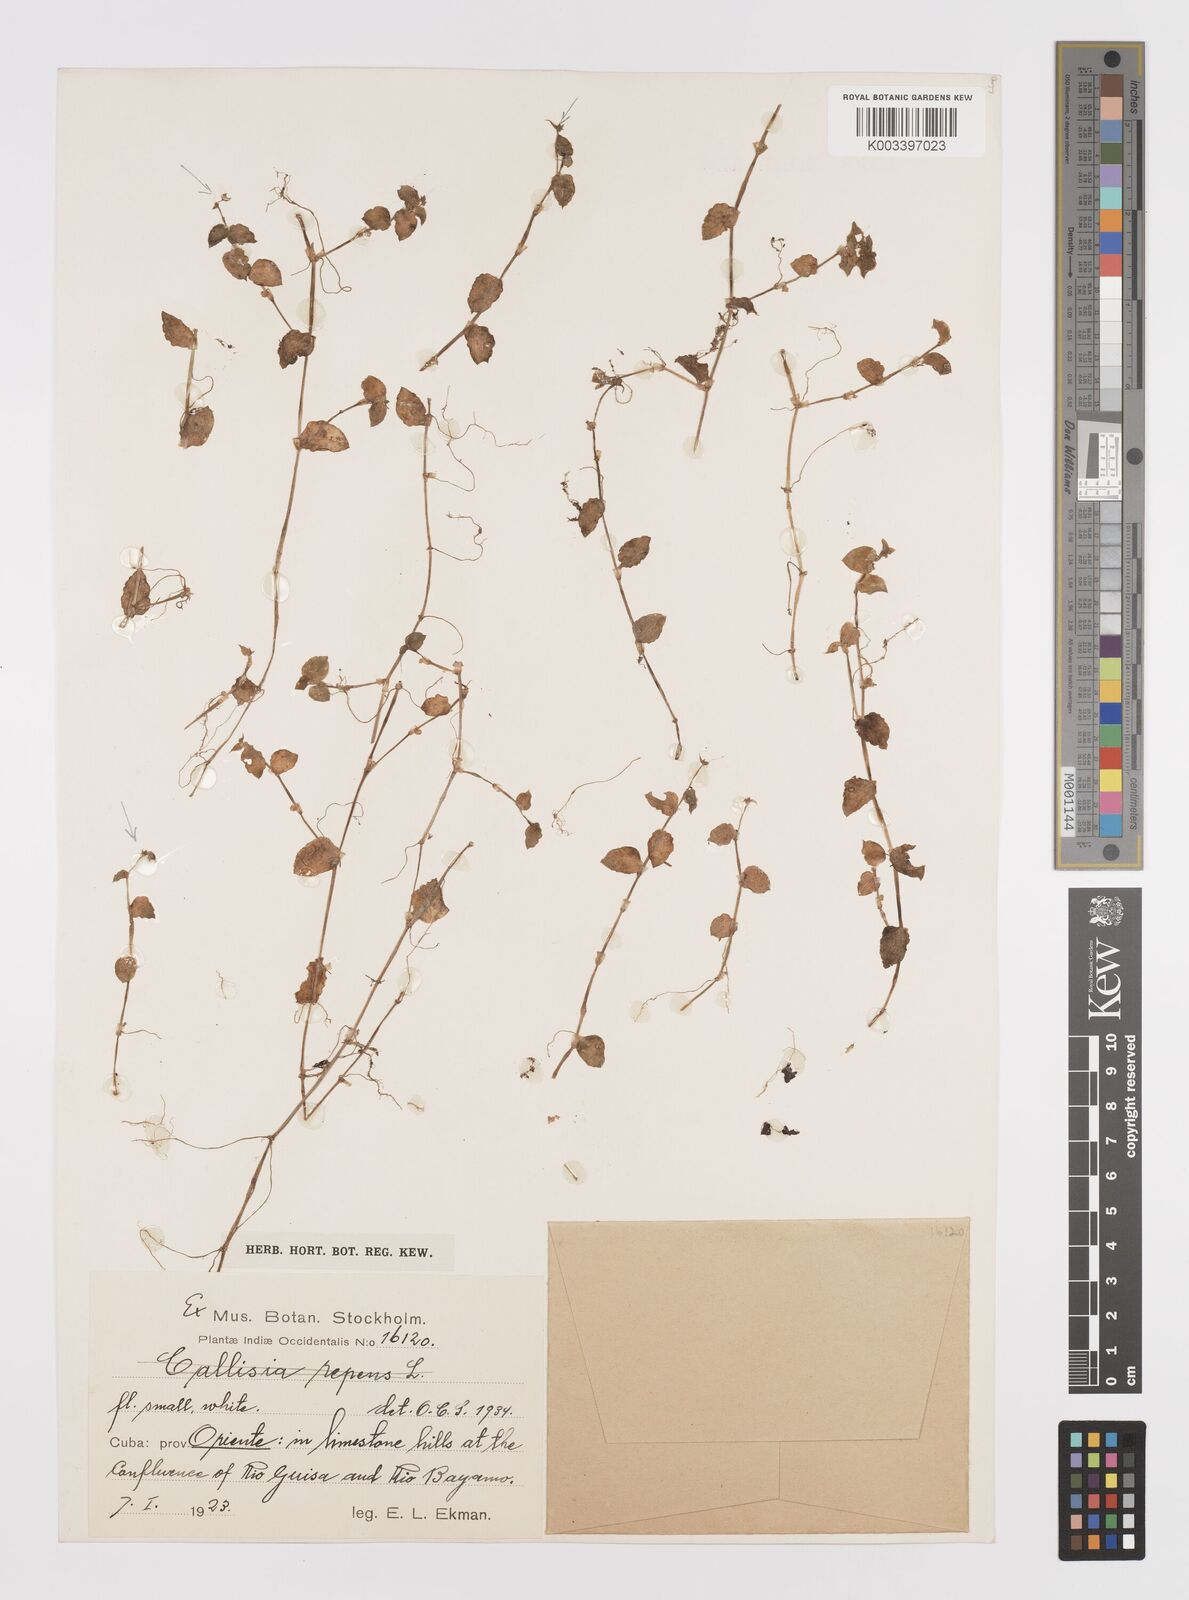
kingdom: Plantae
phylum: Tracheophyta
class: Liliopsida
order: Commelinales
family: Commelinaceae
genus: Callisia
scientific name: Callisia cordifolia
